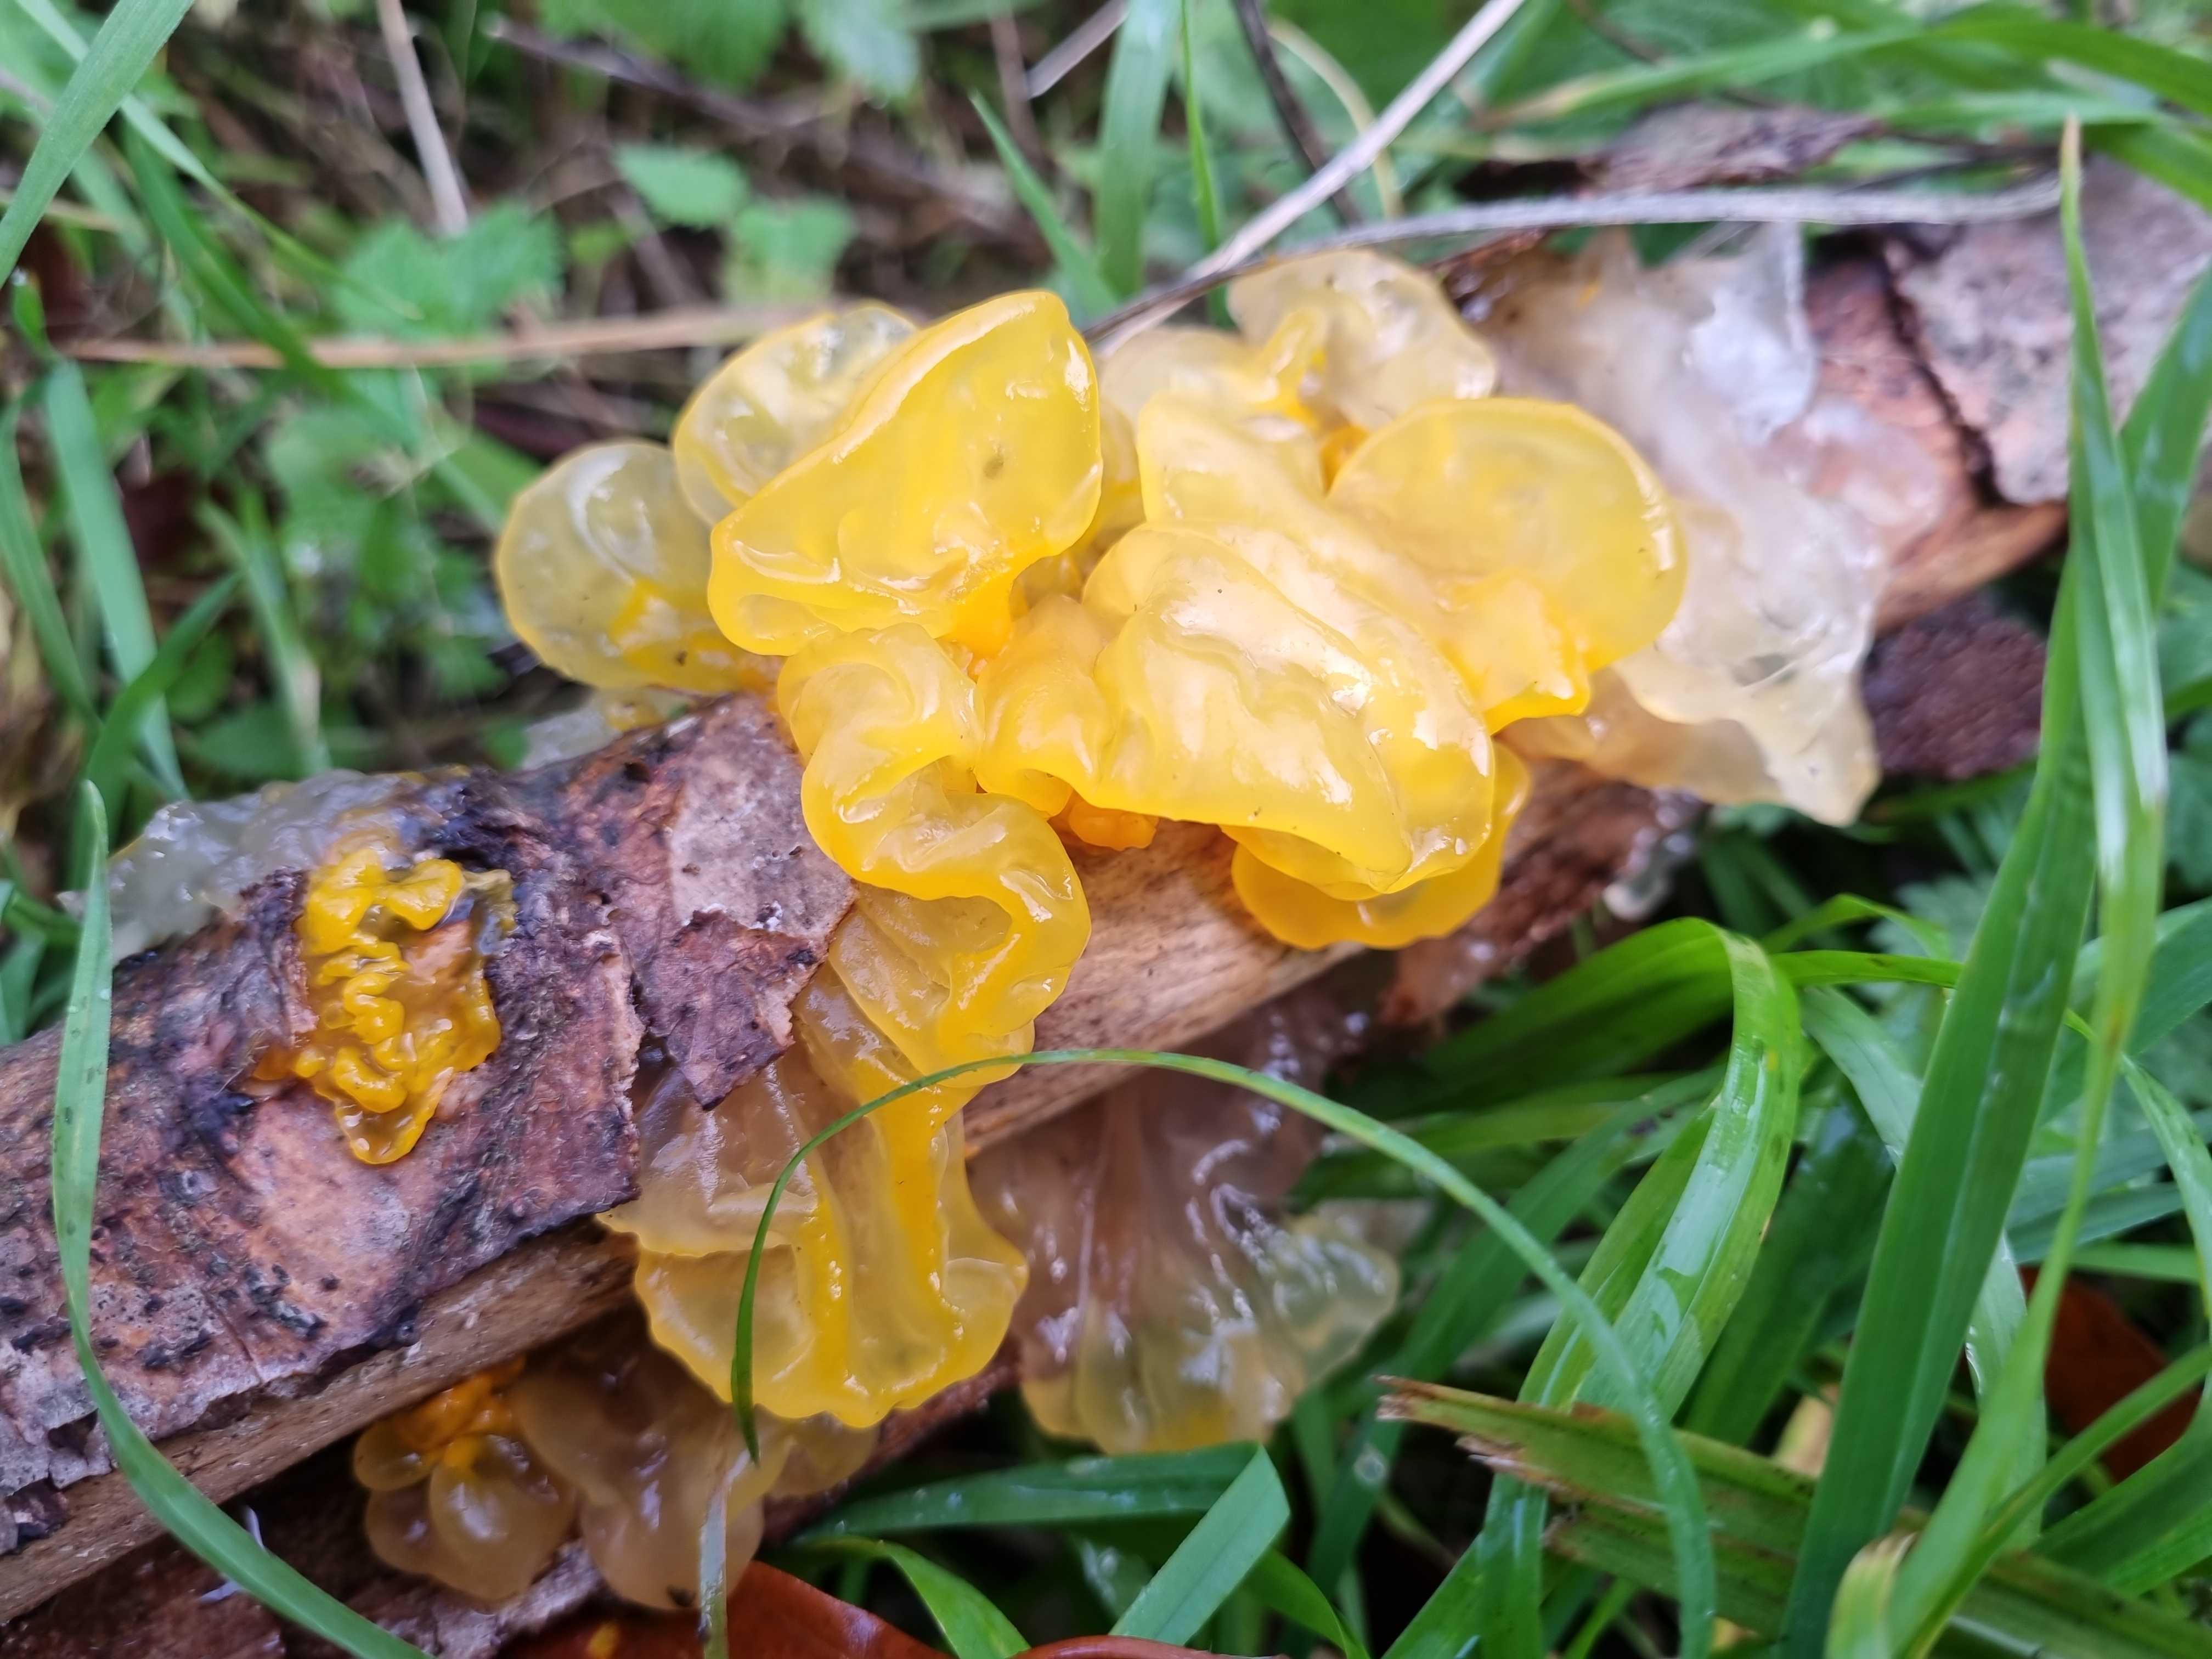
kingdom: Fungi
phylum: Basidiomycota
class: Tremellomycetes
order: Tremellales
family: Tremellaceae
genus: Tremella
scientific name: Tremella mesenterica
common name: gul bævresvamp
